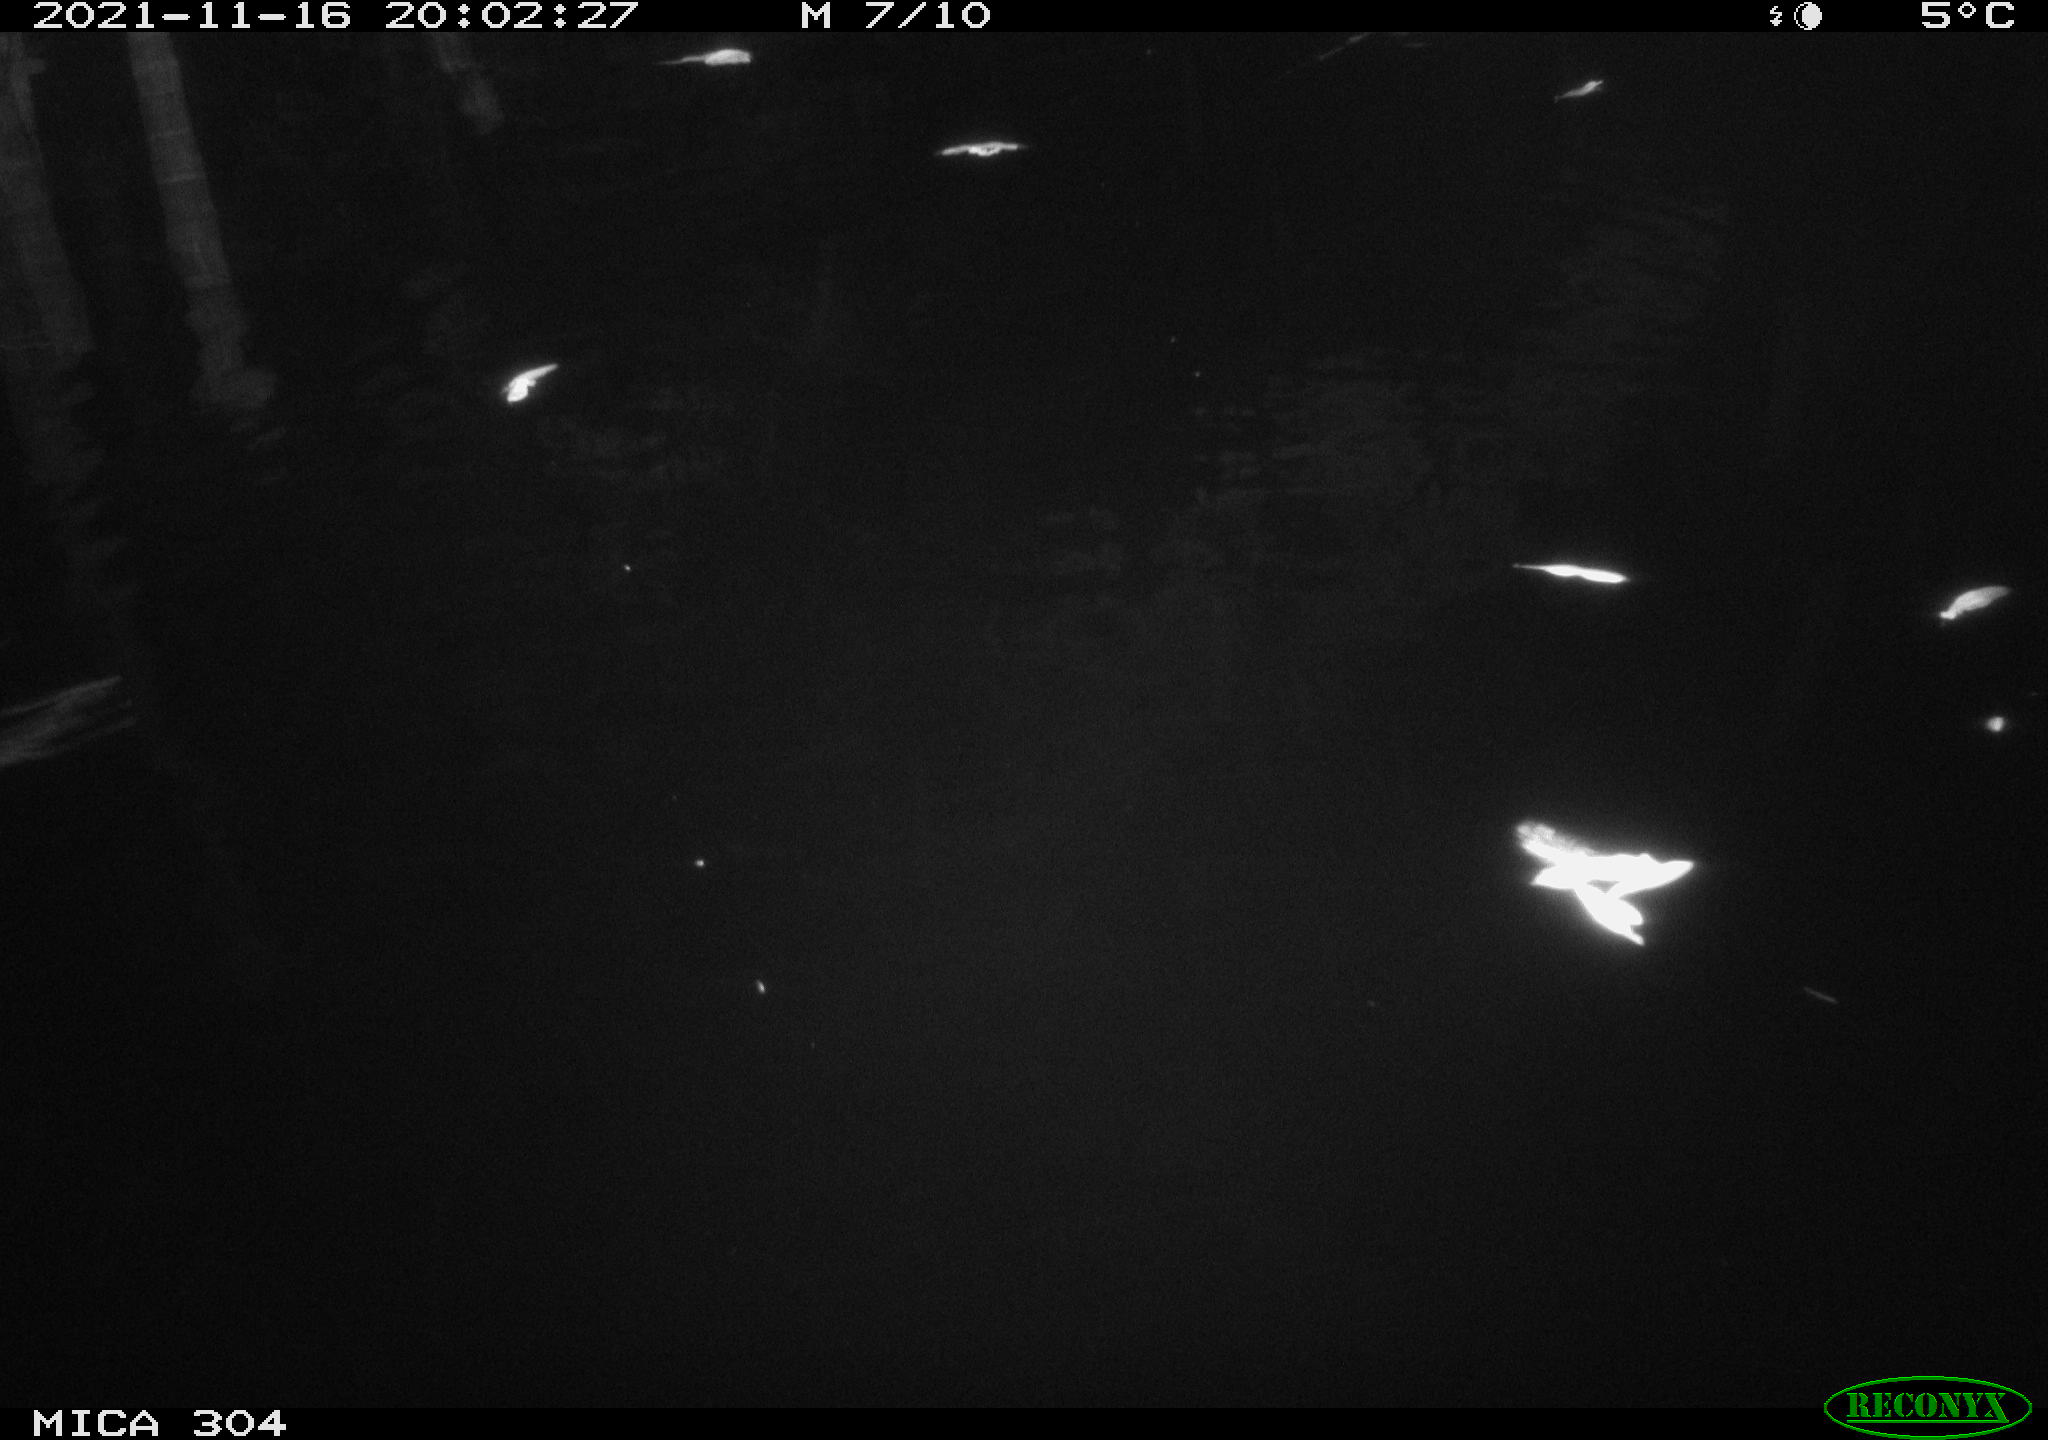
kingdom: Animalia
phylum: Chordata
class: Mammalia
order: Rodentia
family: Muridae
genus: Rattus
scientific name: Rattus norvegicus
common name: Brown rat
